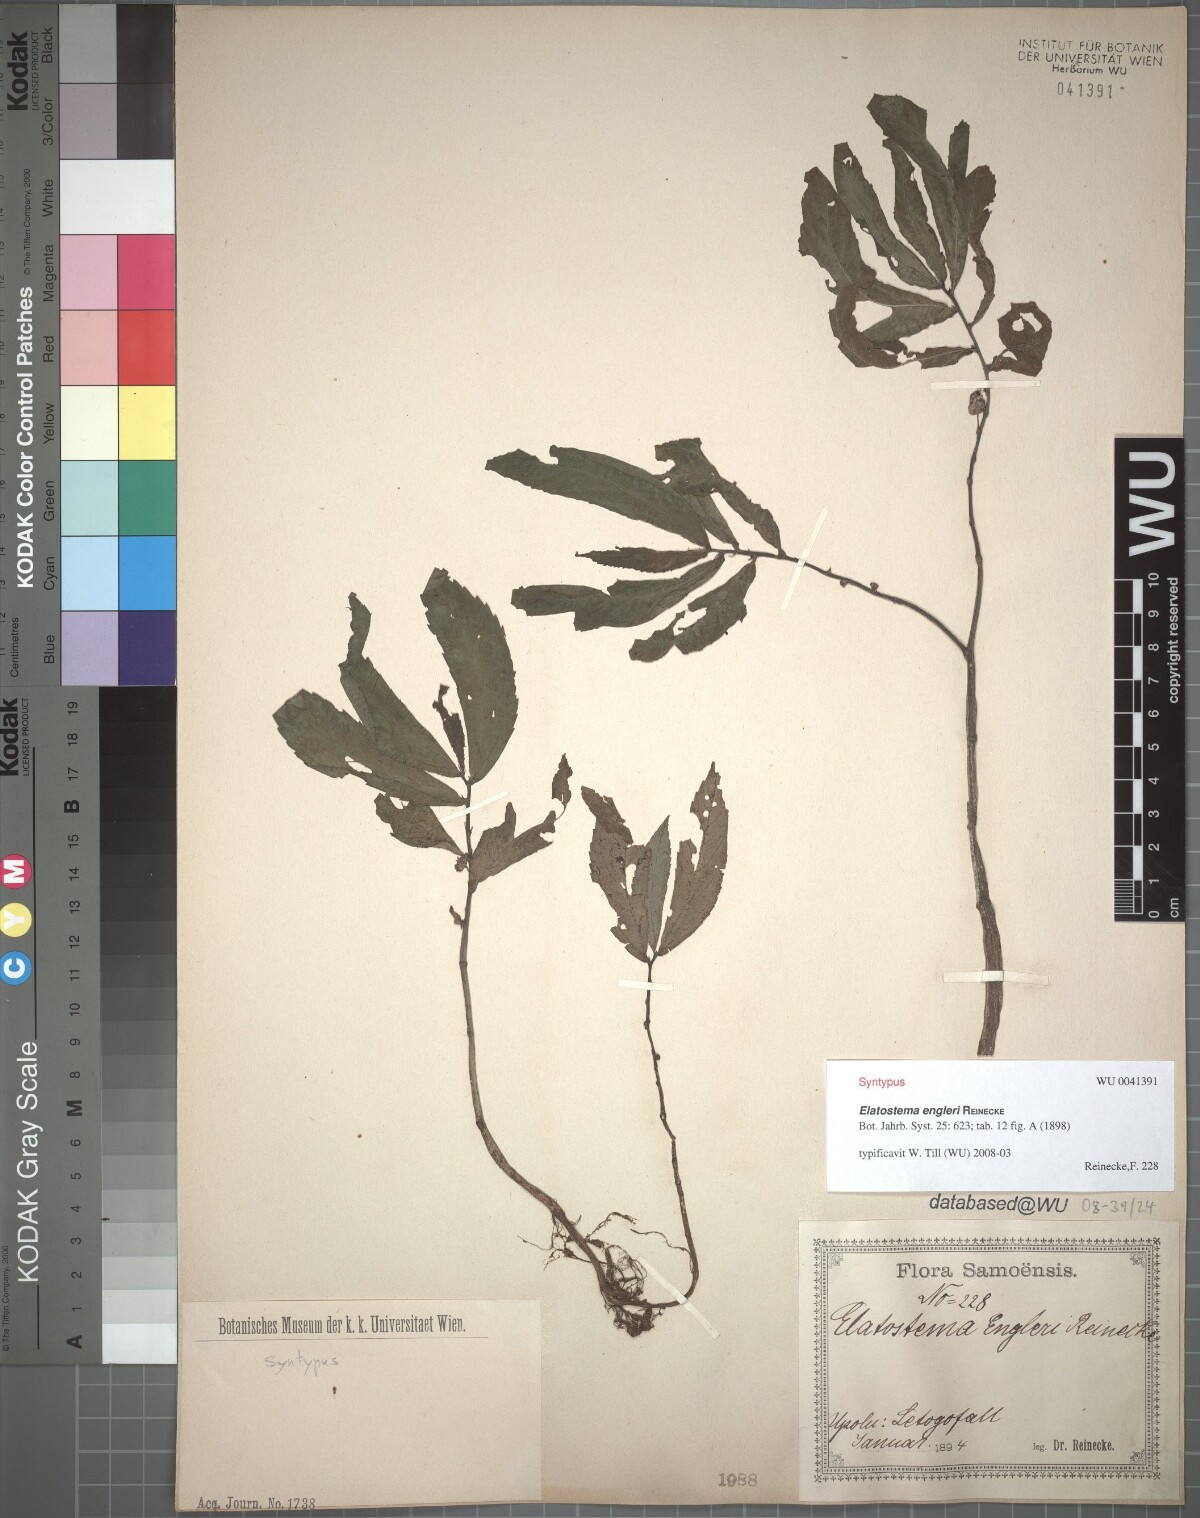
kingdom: Plantae
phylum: Tracheophyta
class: Magnoliopsida
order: Rosales
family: Urticaceae
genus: Elatostema
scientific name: Elatostema engleri
